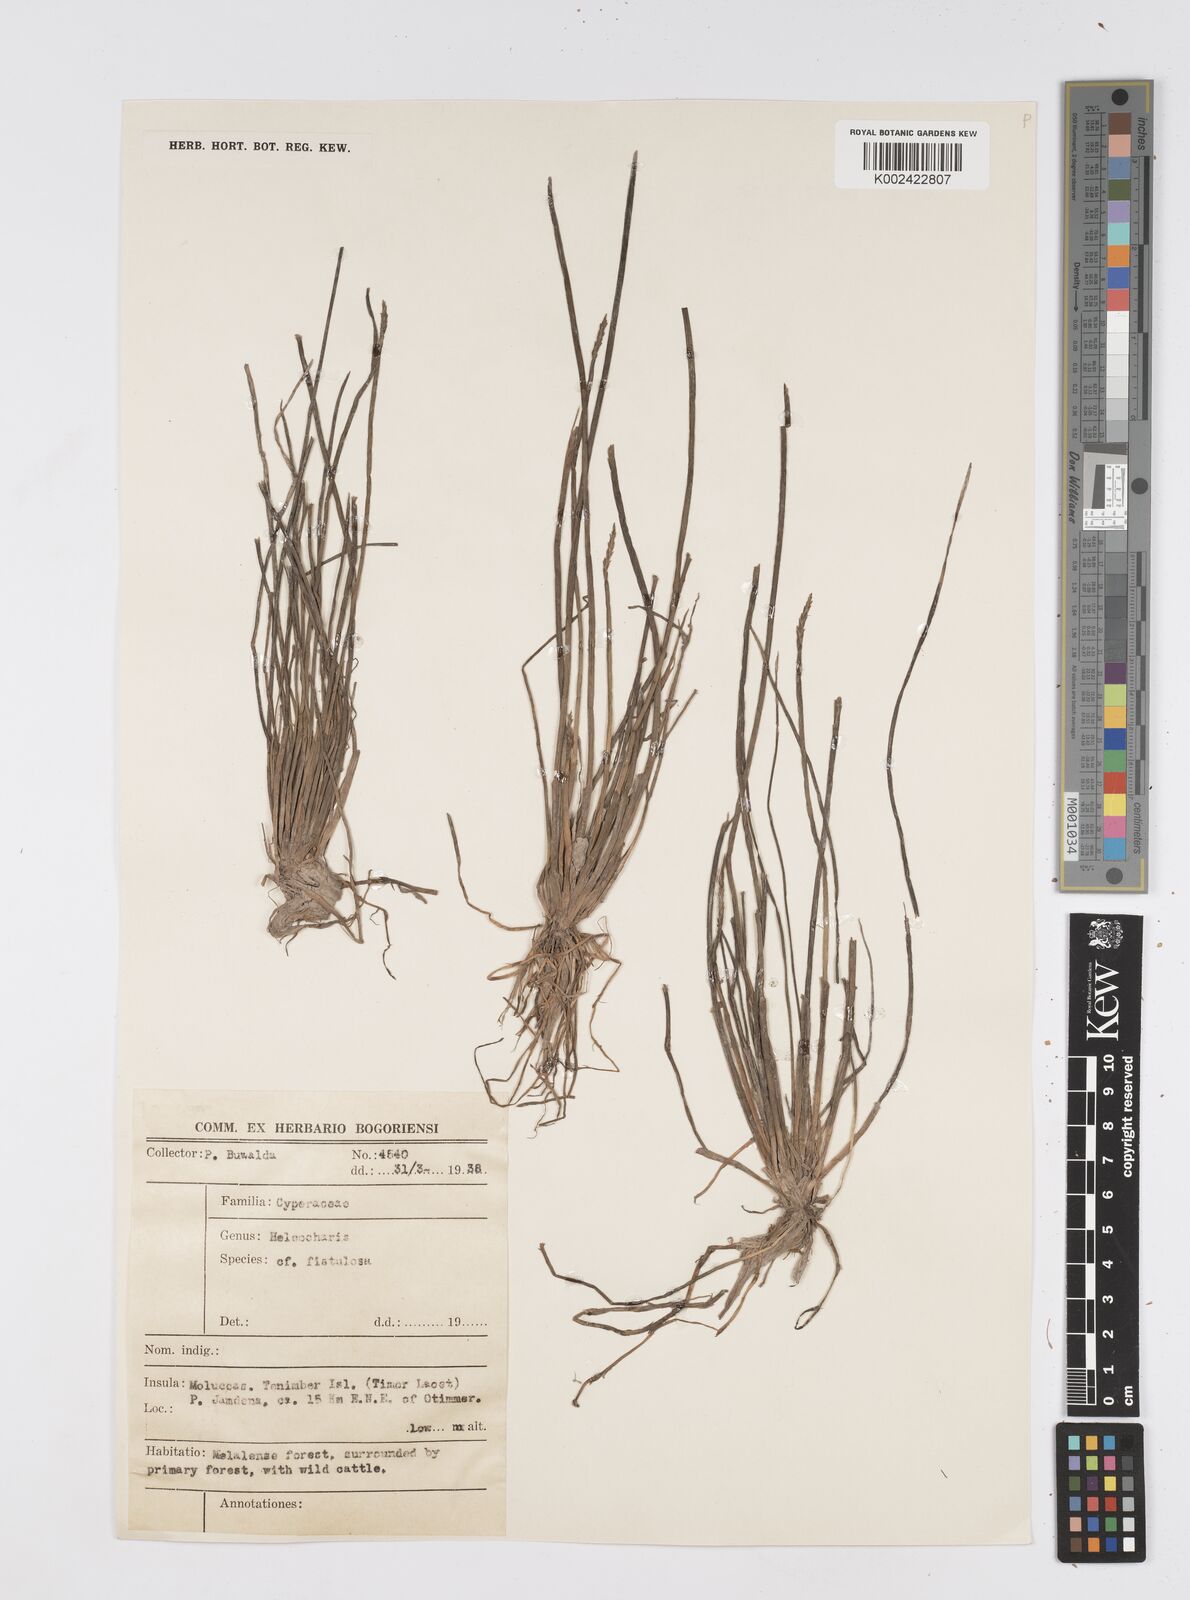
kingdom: Plantae
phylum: Tracheophyta
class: Liliopsida
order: Poales
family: Cyperaceae
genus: Eleocharis
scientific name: Eleocharis acutangula
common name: Acute spikerush
